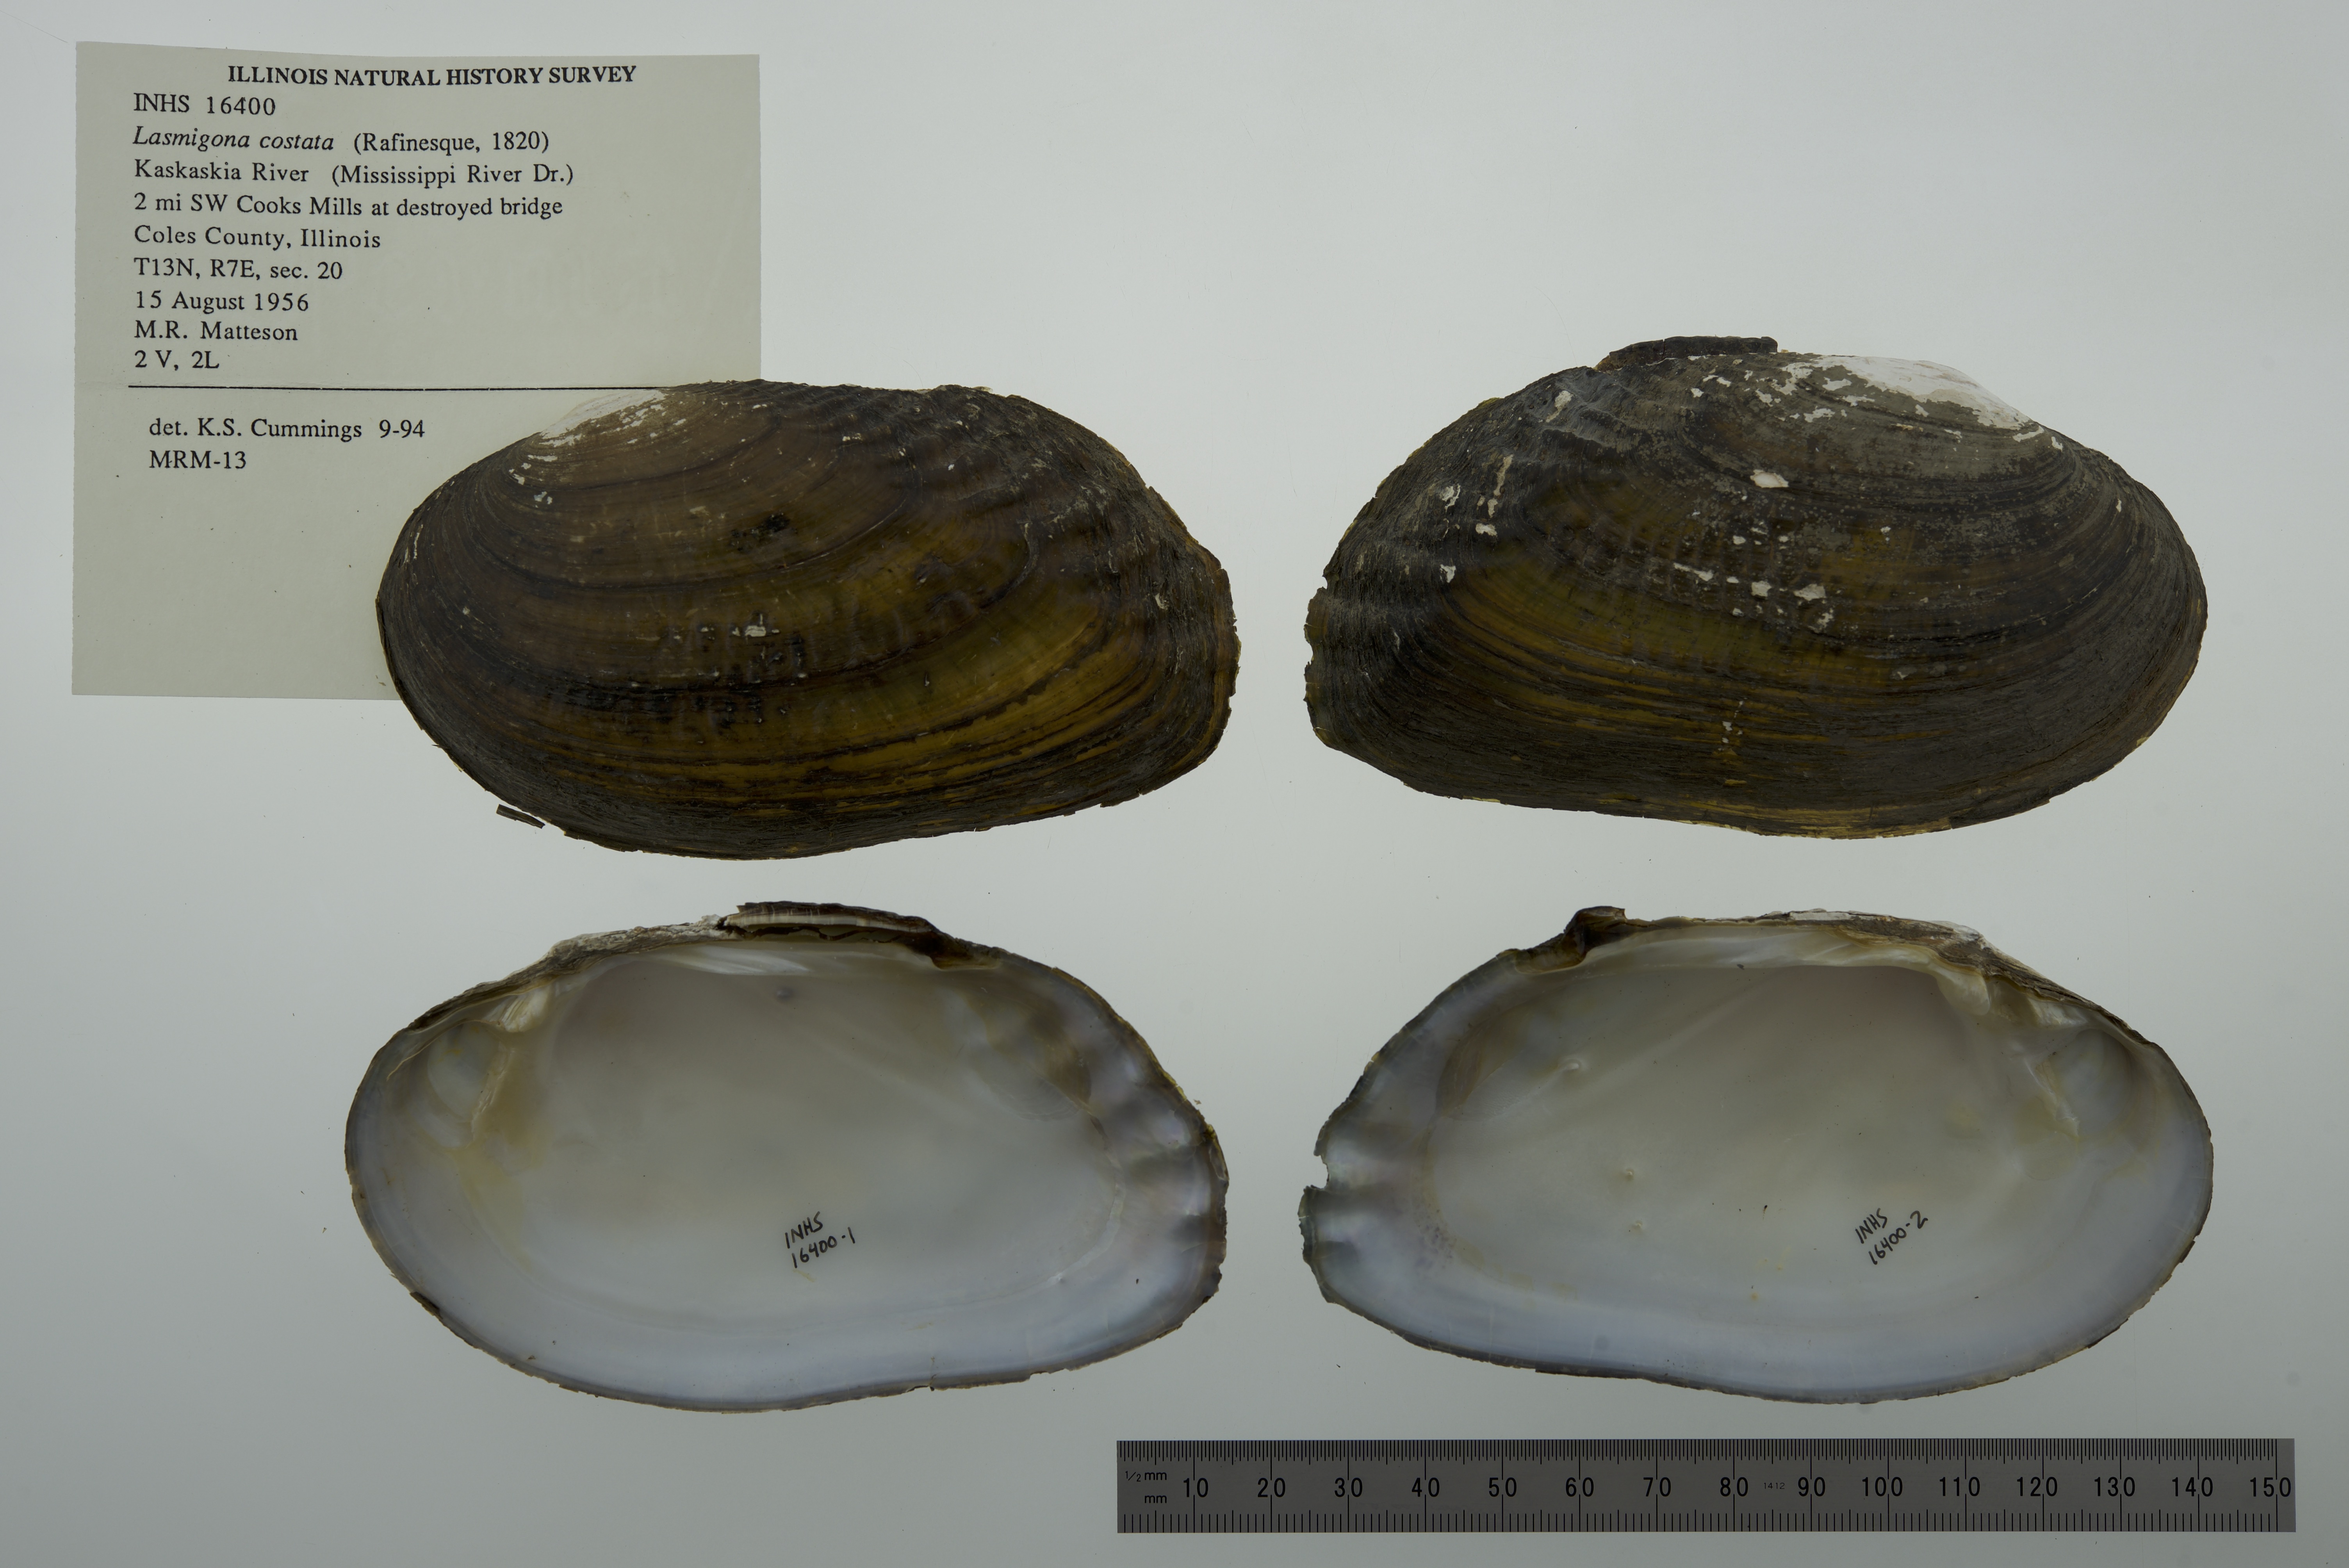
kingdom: Animalia
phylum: Mollusca
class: Bivalvia
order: Unionida
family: Unionidae
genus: Lasmigona
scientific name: Lasmigona costata
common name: Flutedshell
